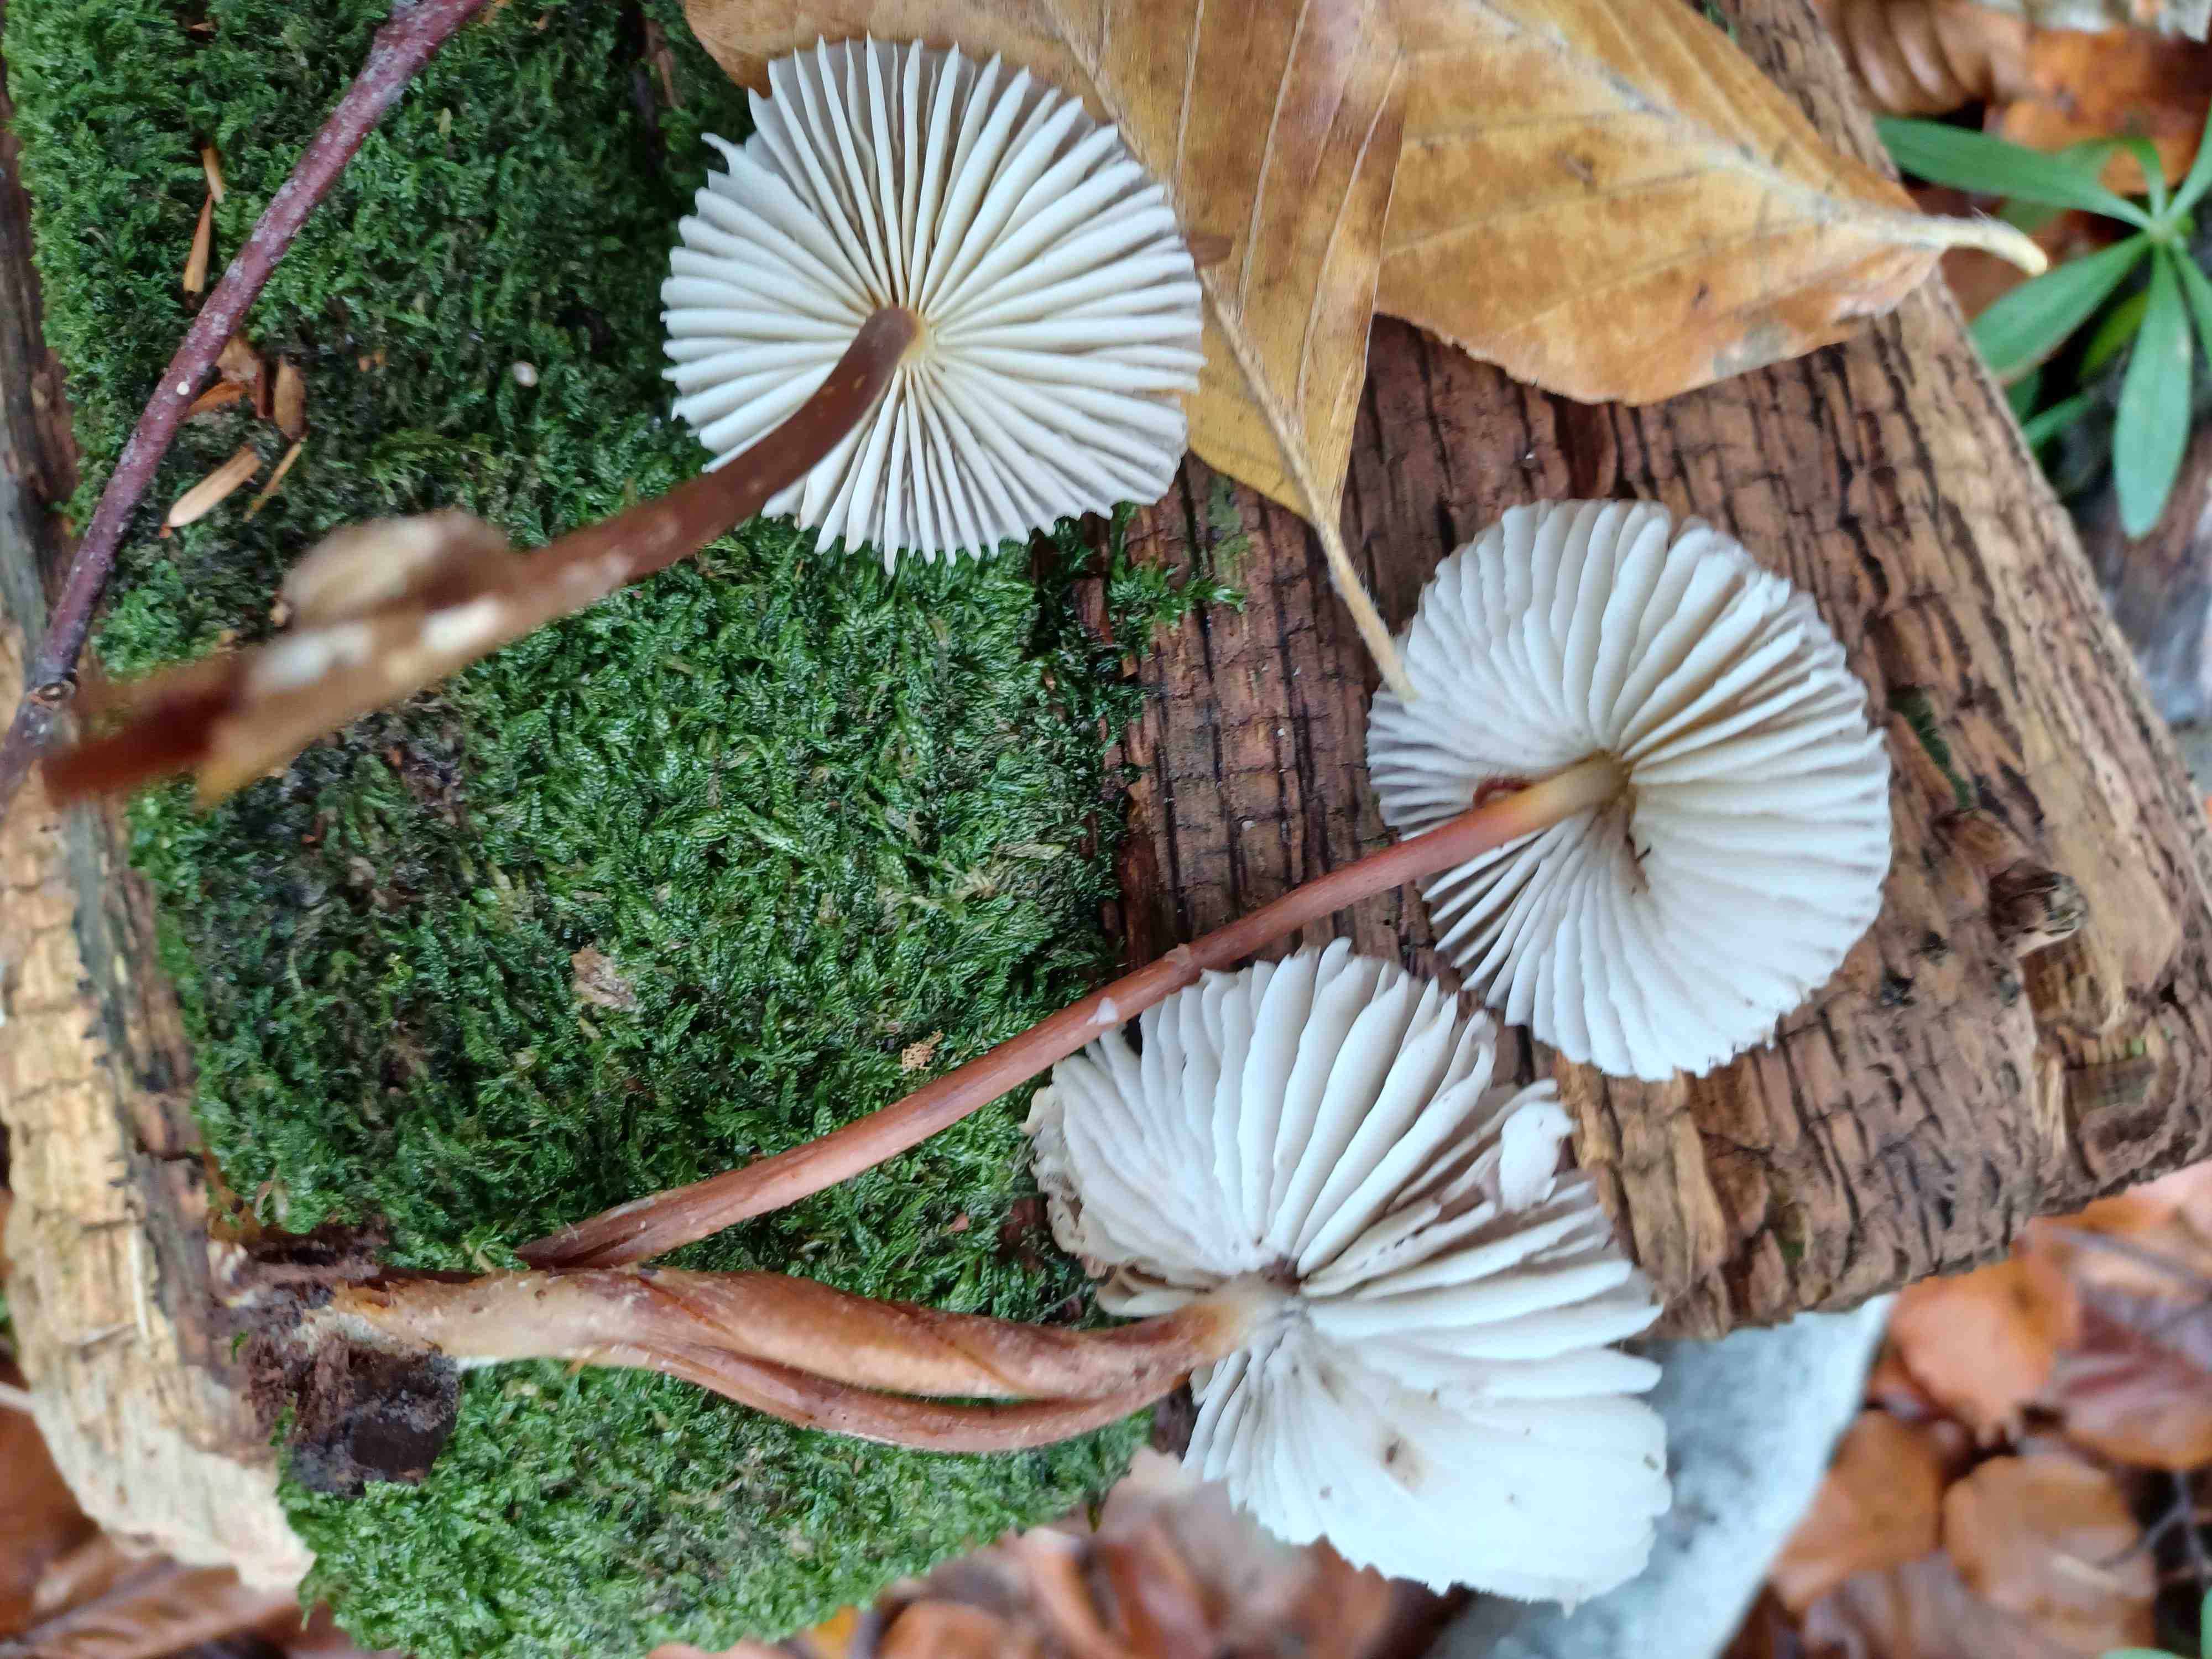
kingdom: Fungi
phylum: Basidiomycota
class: Agaricomycetes
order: Agaricales
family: Mycenaceae
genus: Mycena
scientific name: Mycena inclinata
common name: nikkende huesvamp
